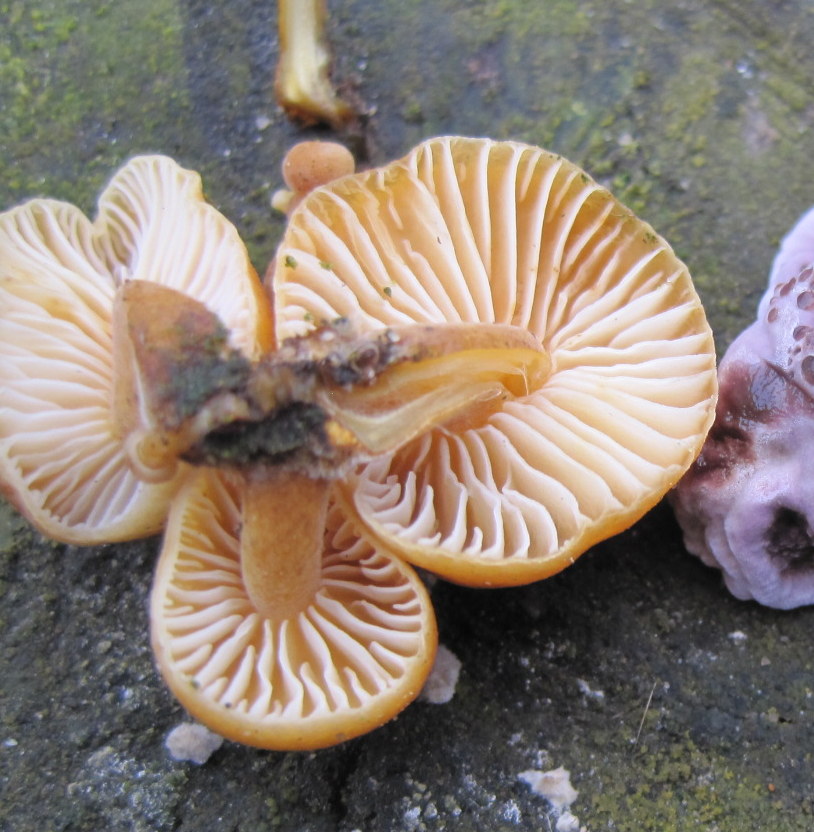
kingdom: Fungi
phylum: Basidiomycota
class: Agaricomycetes
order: Agaricales
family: Physalacriaceae
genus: Flammulina
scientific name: Flammulina velutipes
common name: gul fløjlsfod
